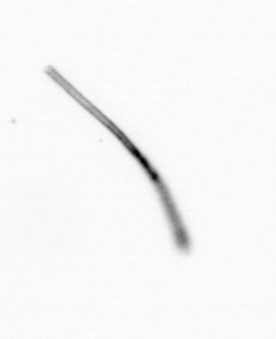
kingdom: Chromista
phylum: Ochrophyta
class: Bacillariophyceae
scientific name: Bacillariophyceae
